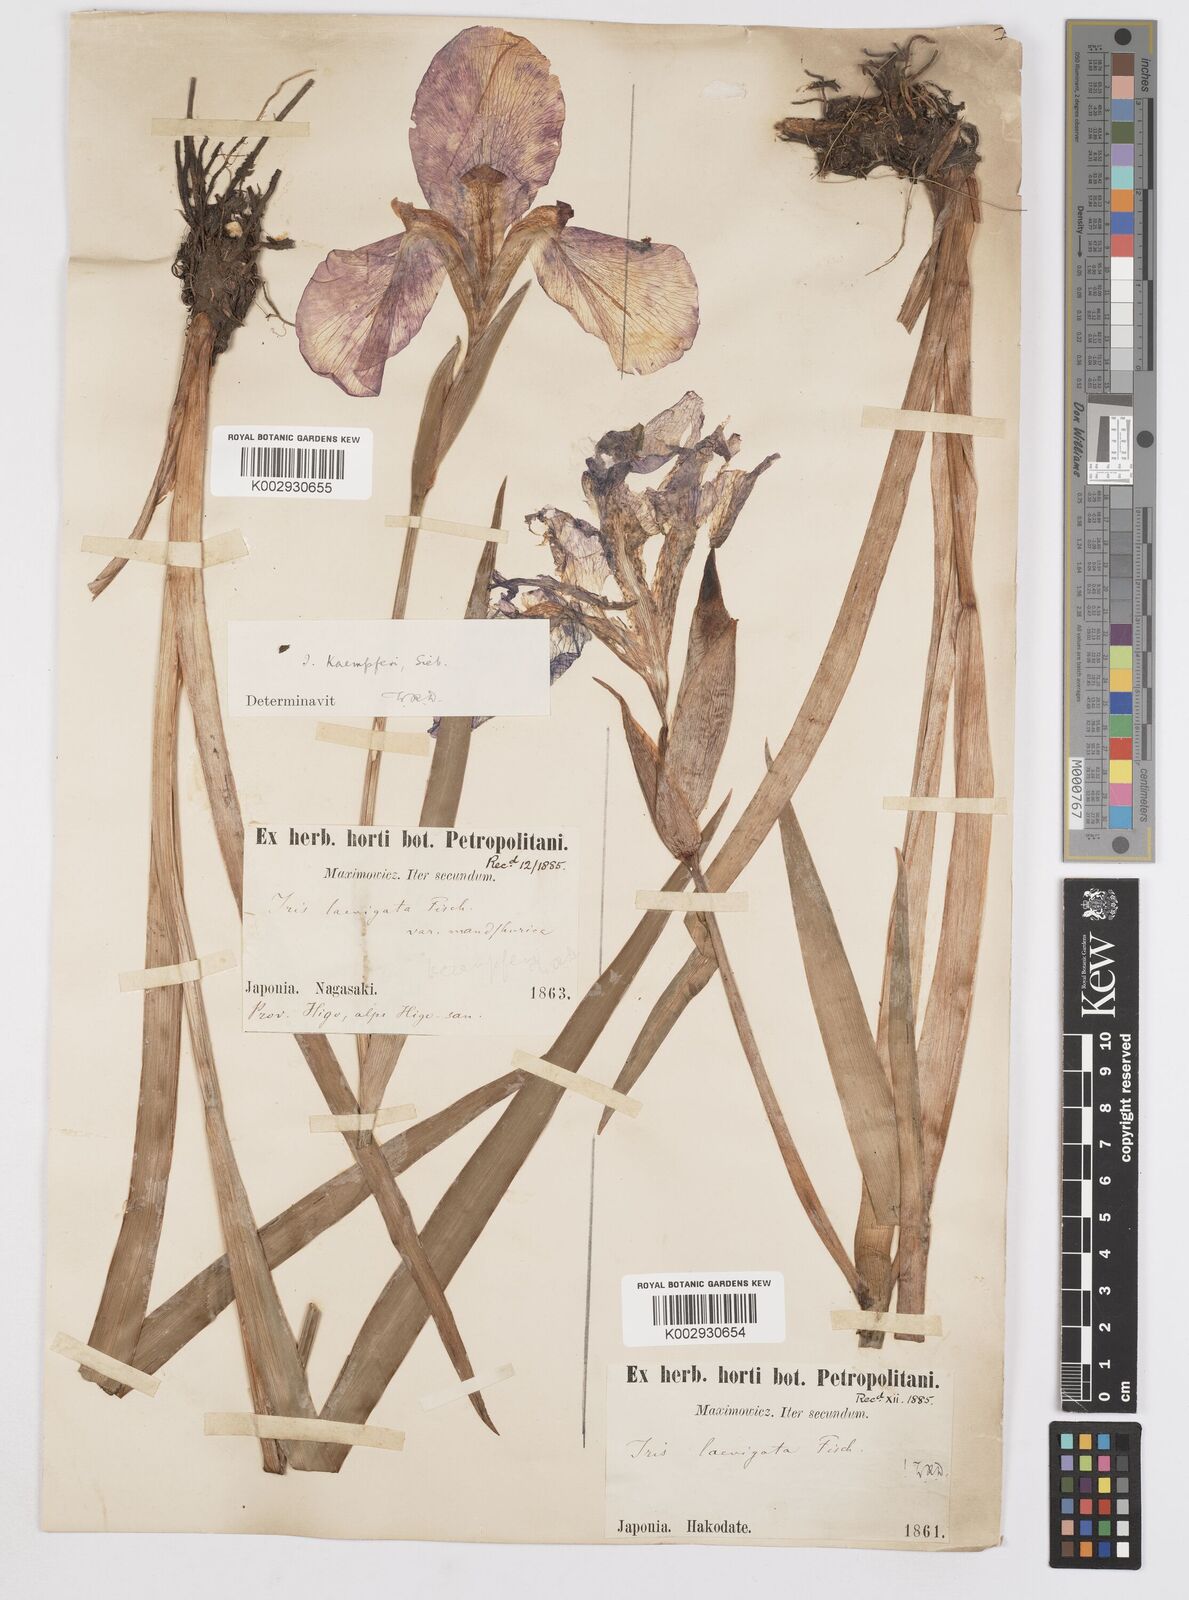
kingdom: Plantae
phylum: Tracheophyta
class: Liliopsida
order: Asparagales
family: Iridaceae
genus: Iris
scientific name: Iris ensata
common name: Beaked iris
